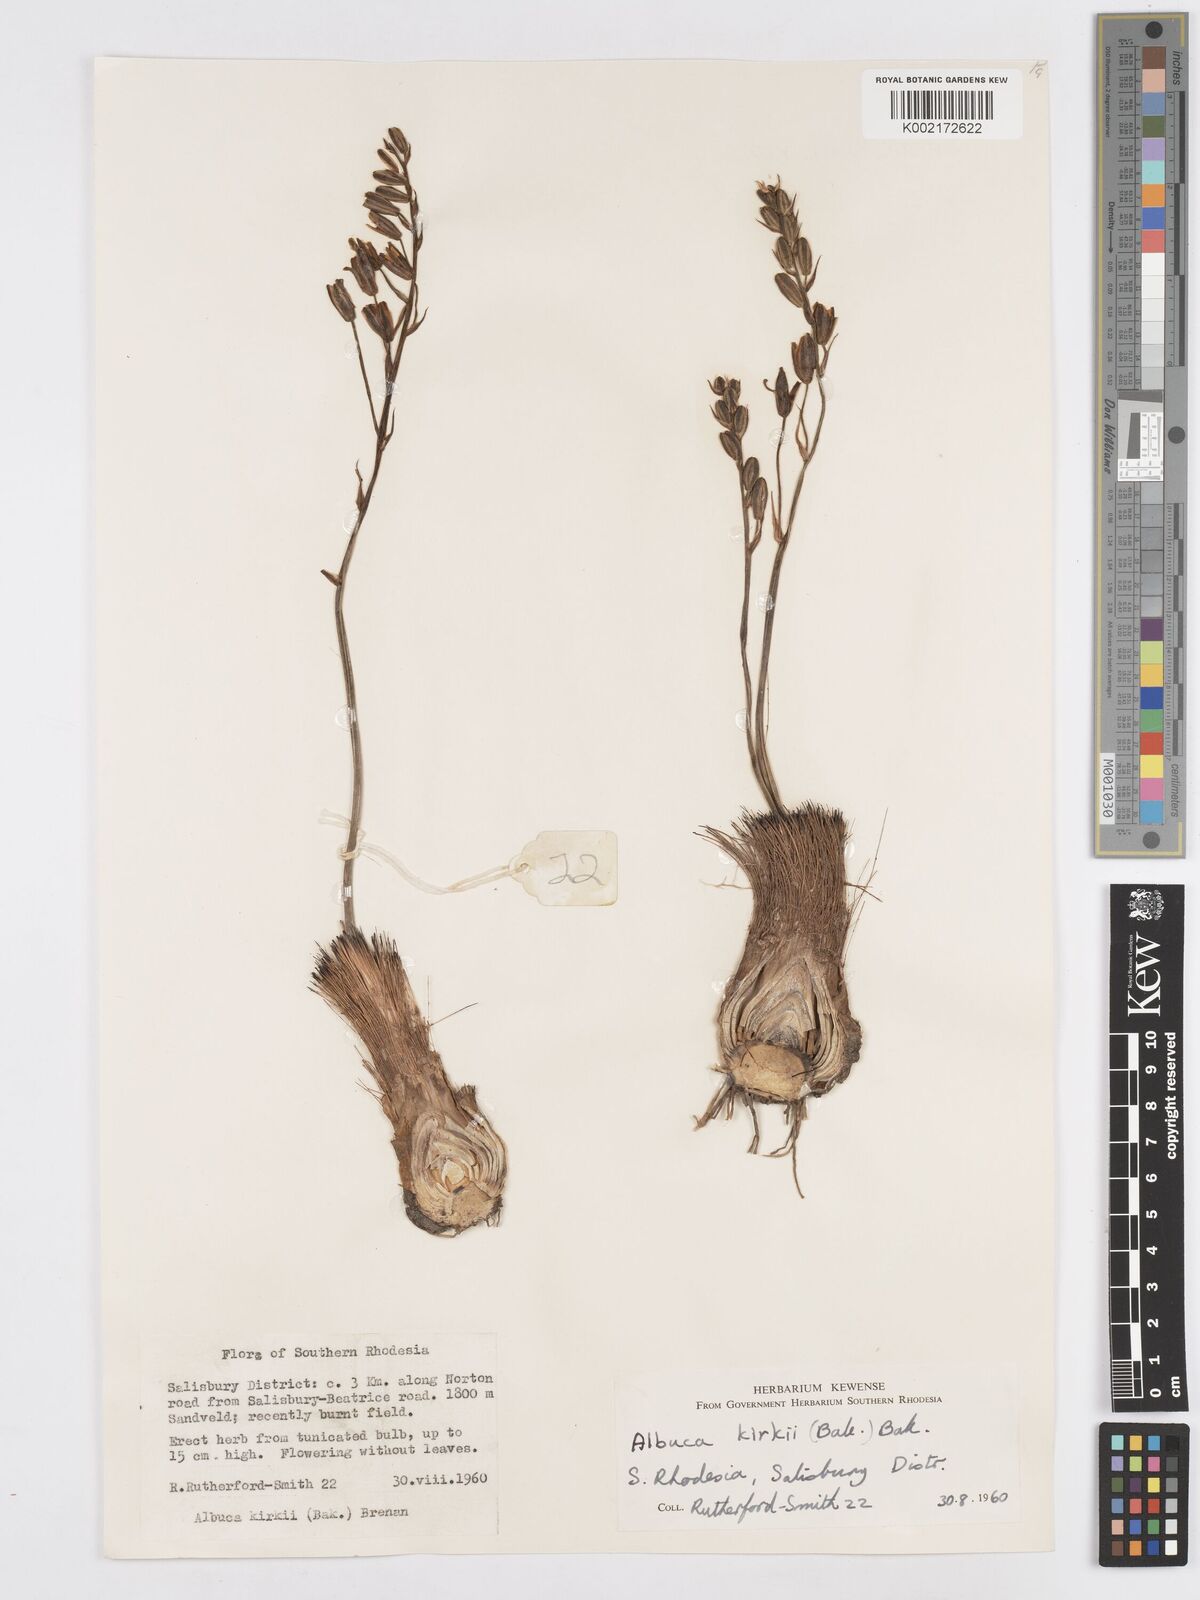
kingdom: Plantae
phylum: Tracheophyta
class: Liliopsida
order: Asparagales
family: Asparagaceae
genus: Albuca
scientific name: Albuca kirkii
